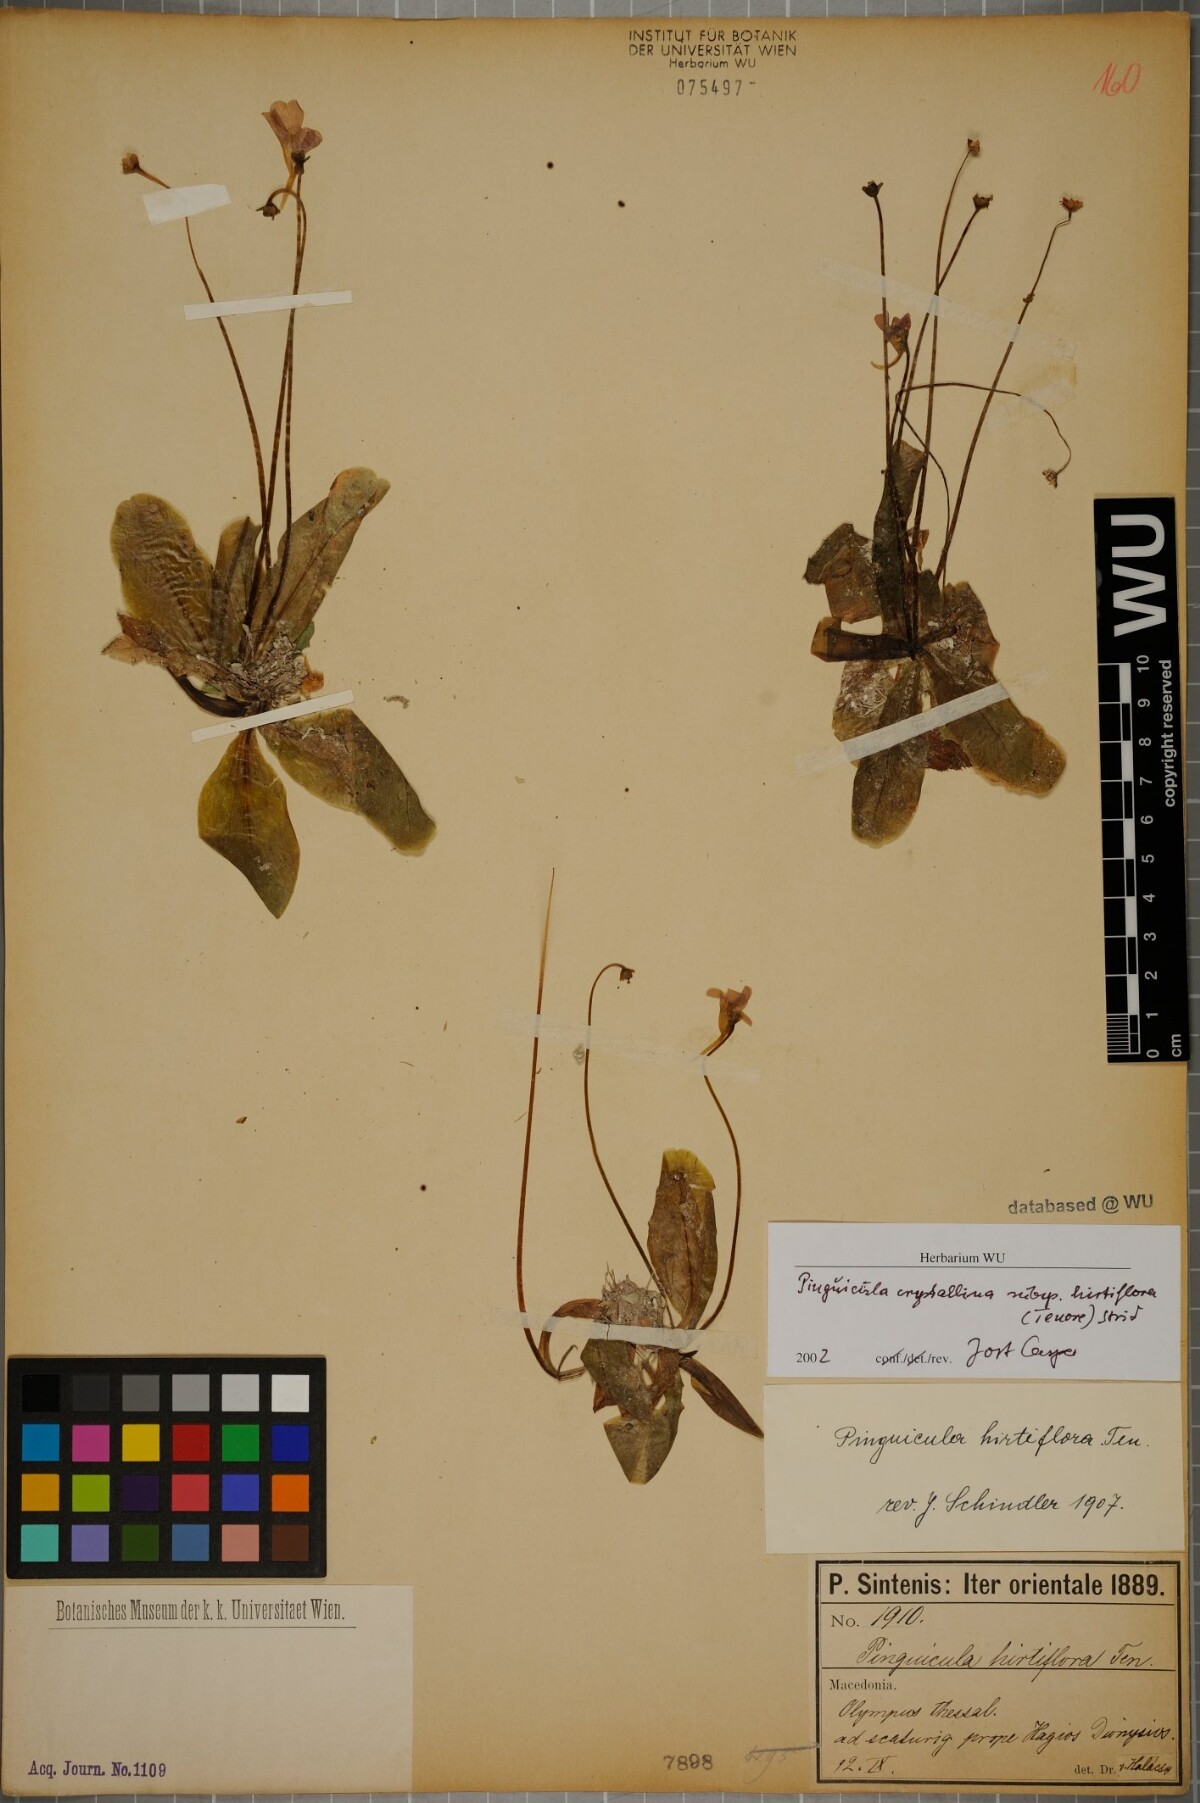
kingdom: Plantae
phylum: Tracheophyta
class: Magnoliopsida
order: Lamiales
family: Lentibulariaceae
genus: Pinguicula
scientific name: Pinguicula crystallina
